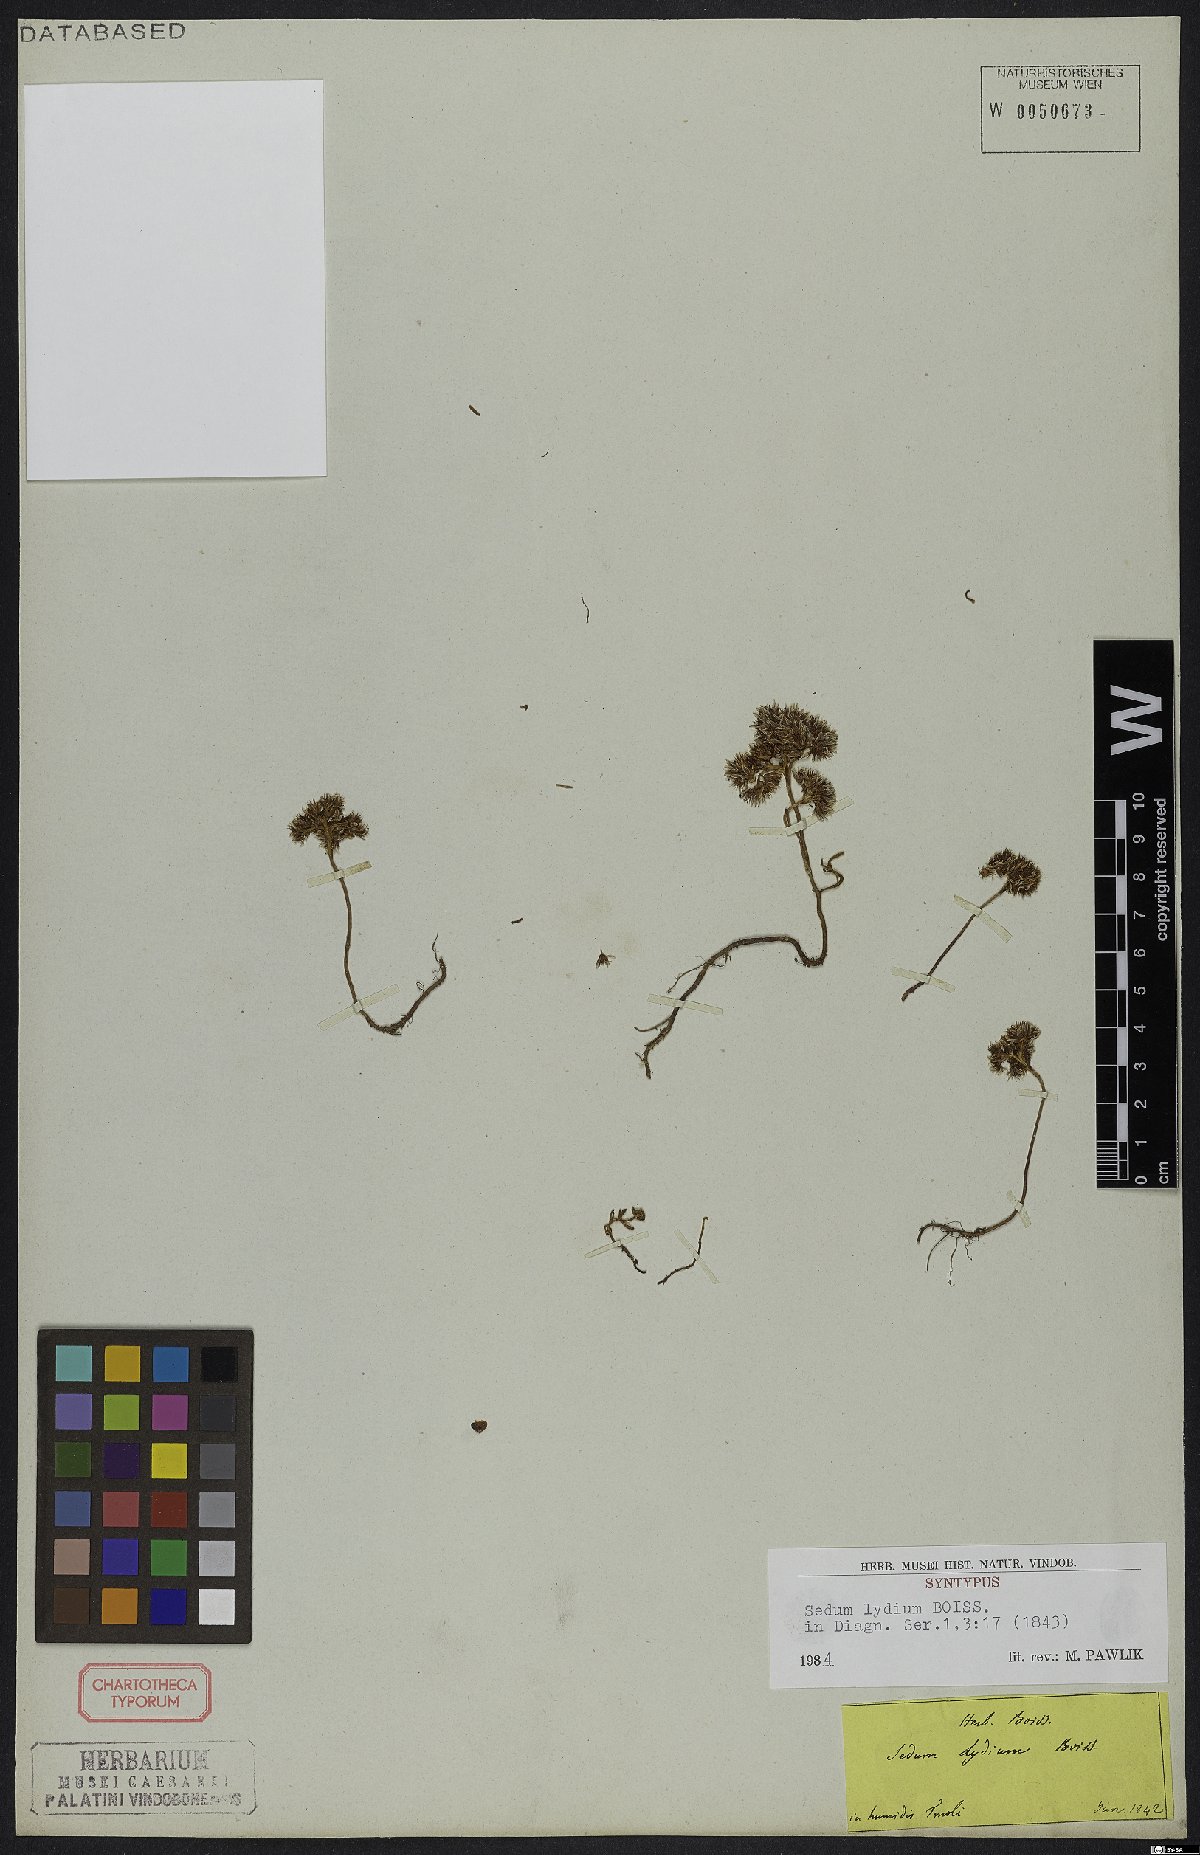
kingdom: Plantae
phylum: Tracheophyta
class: Magnoliopsida
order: Saxifragales
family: Crassulaceae
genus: Sedum
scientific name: Sedum lydium
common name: Least stonecrop
